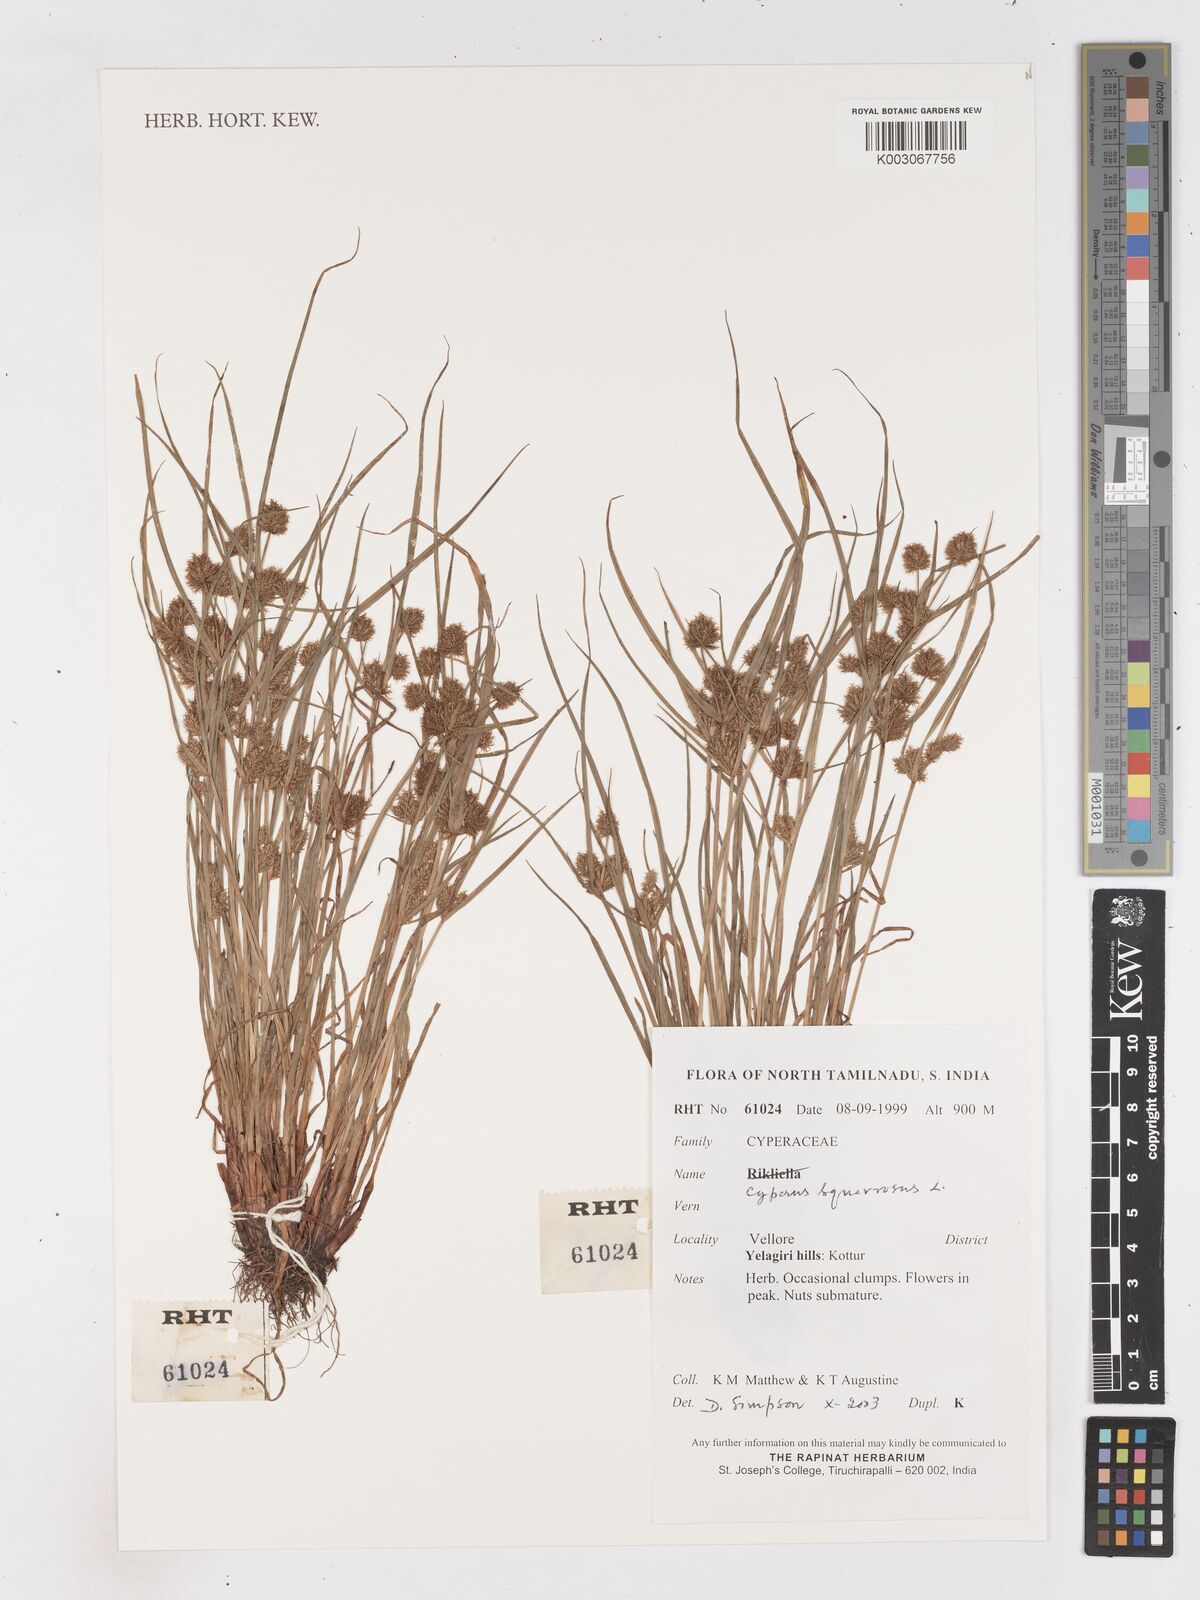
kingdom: Plantae
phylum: Tracheophyta
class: Liliopsida
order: Poales
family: Cyperaceae
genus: Cyperus
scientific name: Cyperus maderaspatanus
